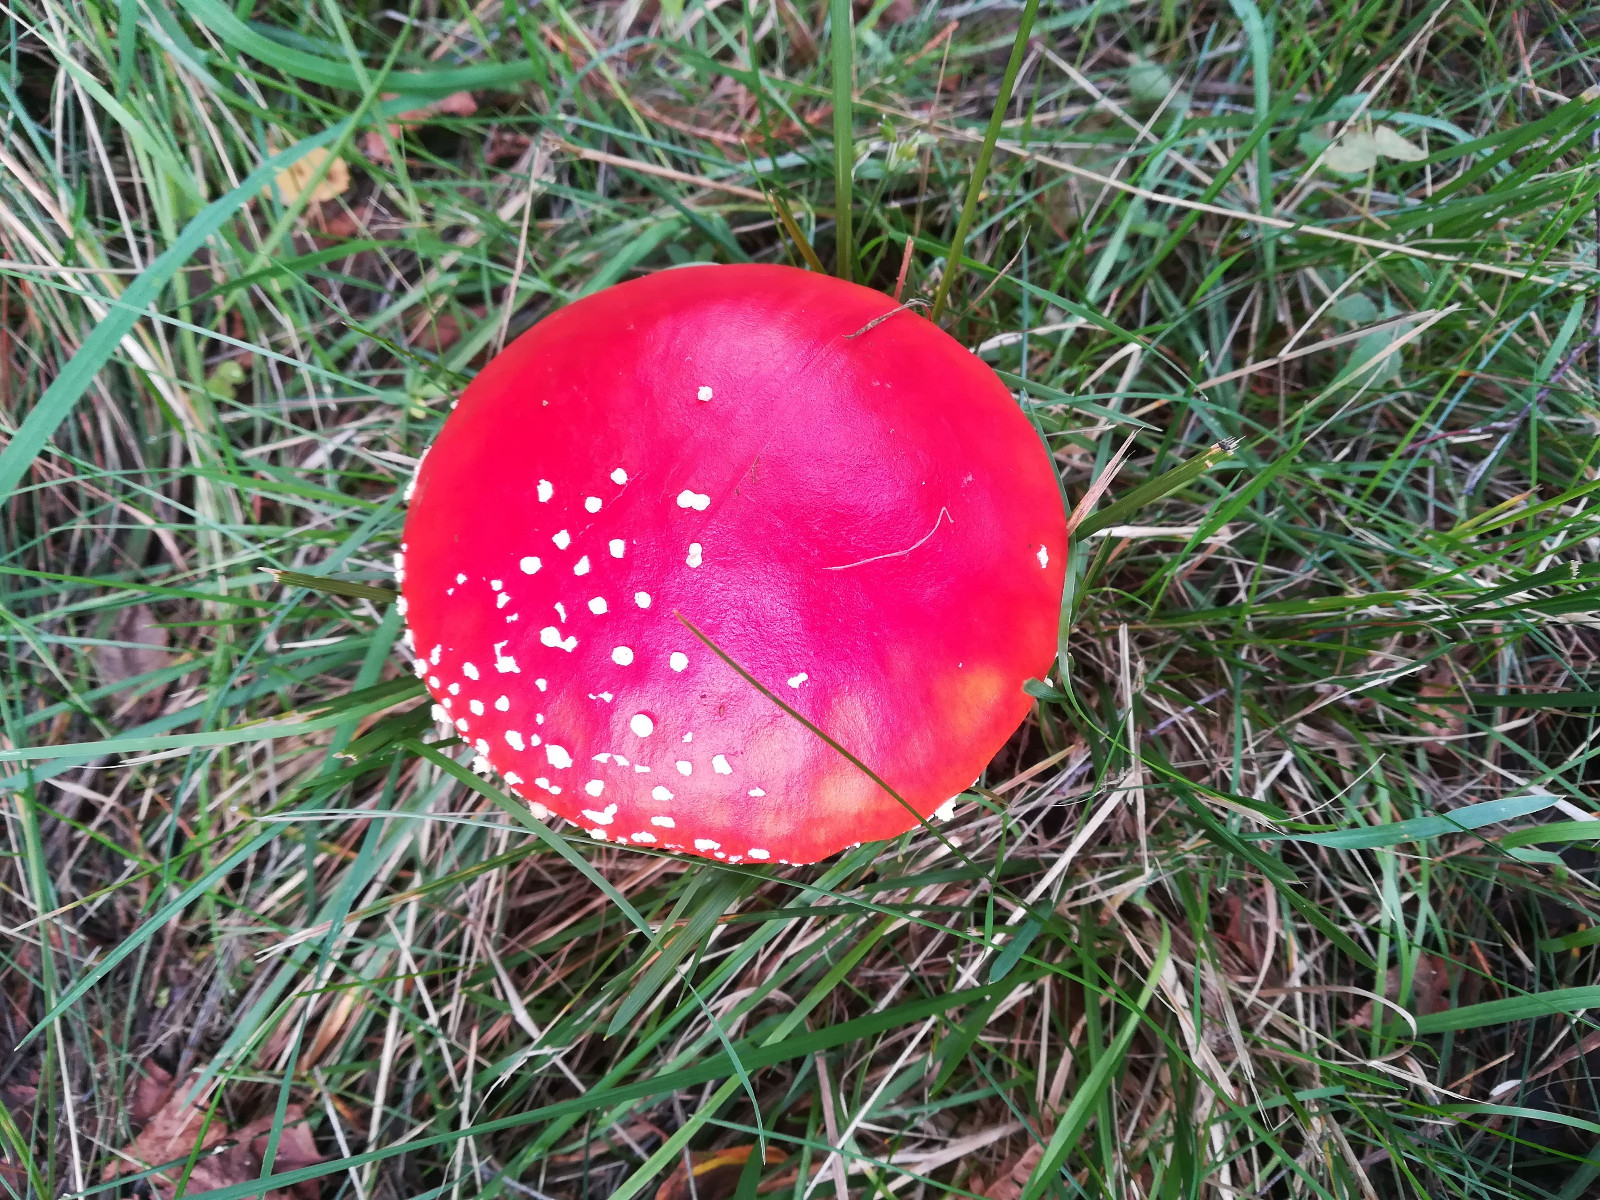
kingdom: Fungi
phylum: Basidiomycota
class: Agaricomycetes
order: Agaricales
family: Amanitaceae
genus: Amanita
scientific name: Amanita muscaria
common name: rød fluesvamp
